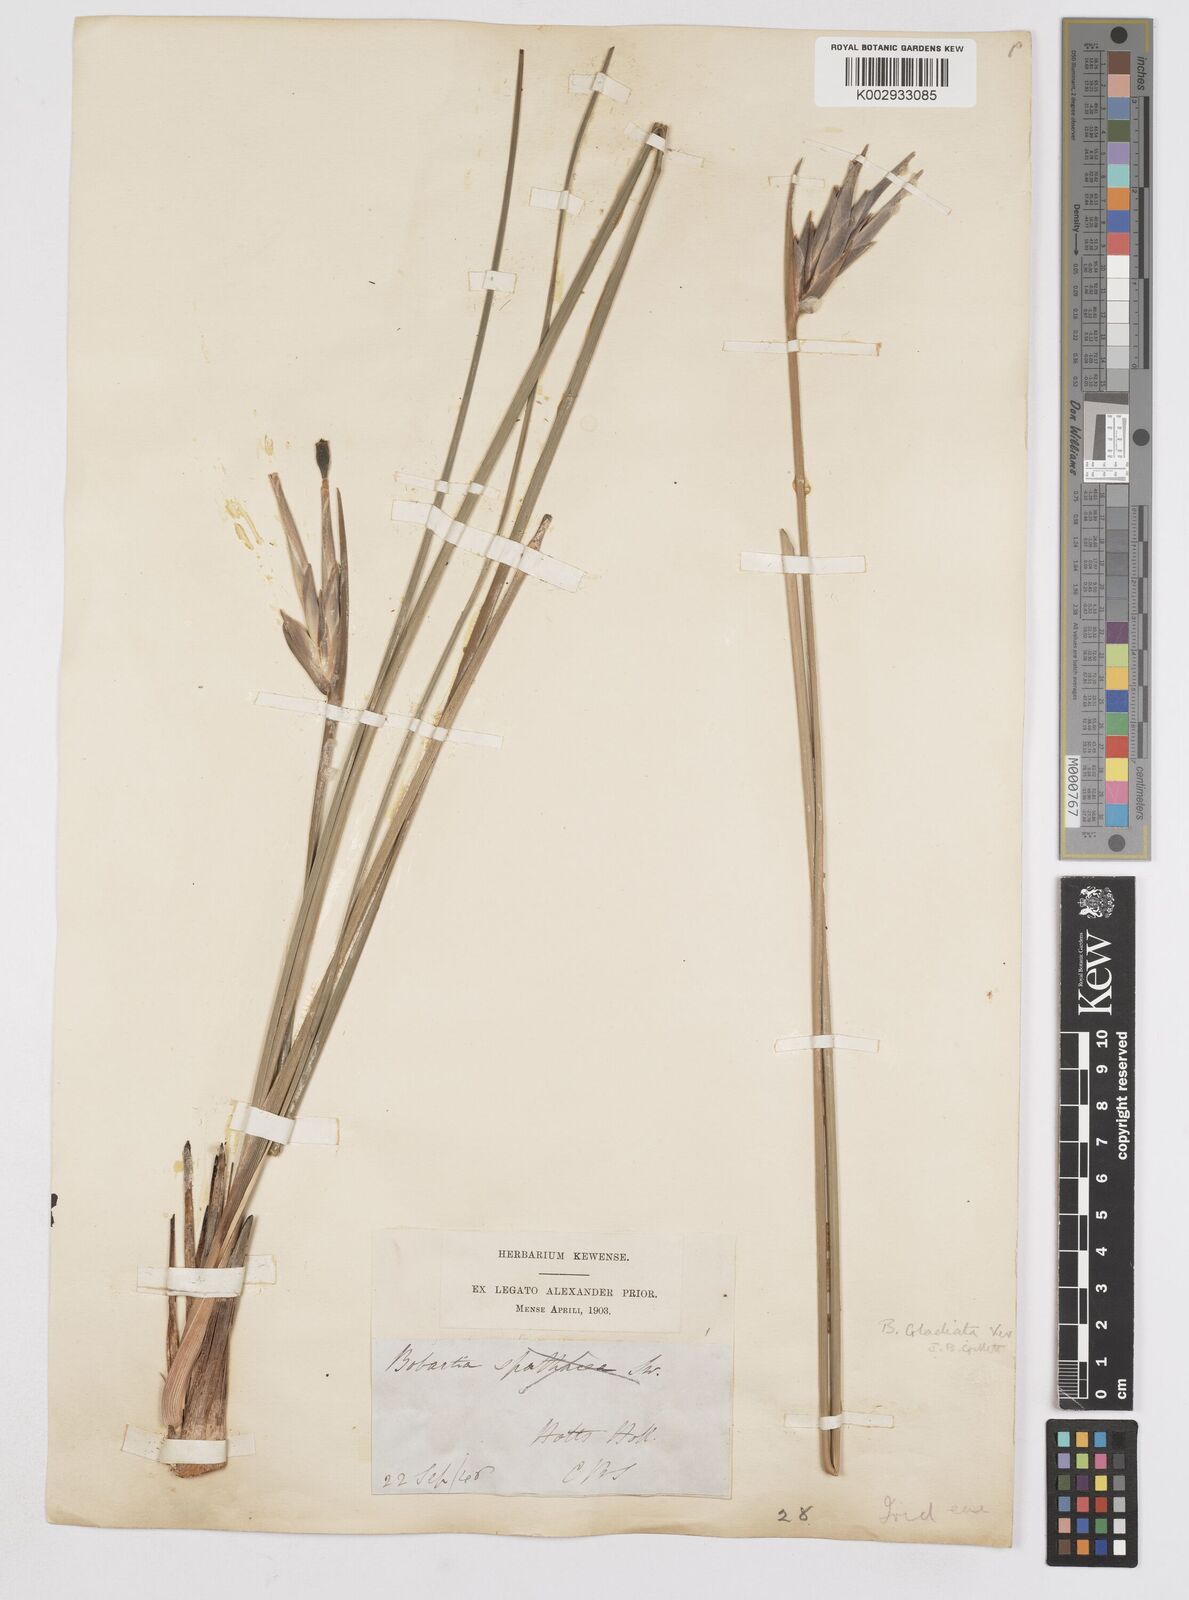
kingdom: Plantae
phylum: Tracheophyta
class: Liliopsida
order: Asparagales
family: Iridaceae
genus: Bobartia
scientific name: Bobartia gladiata
